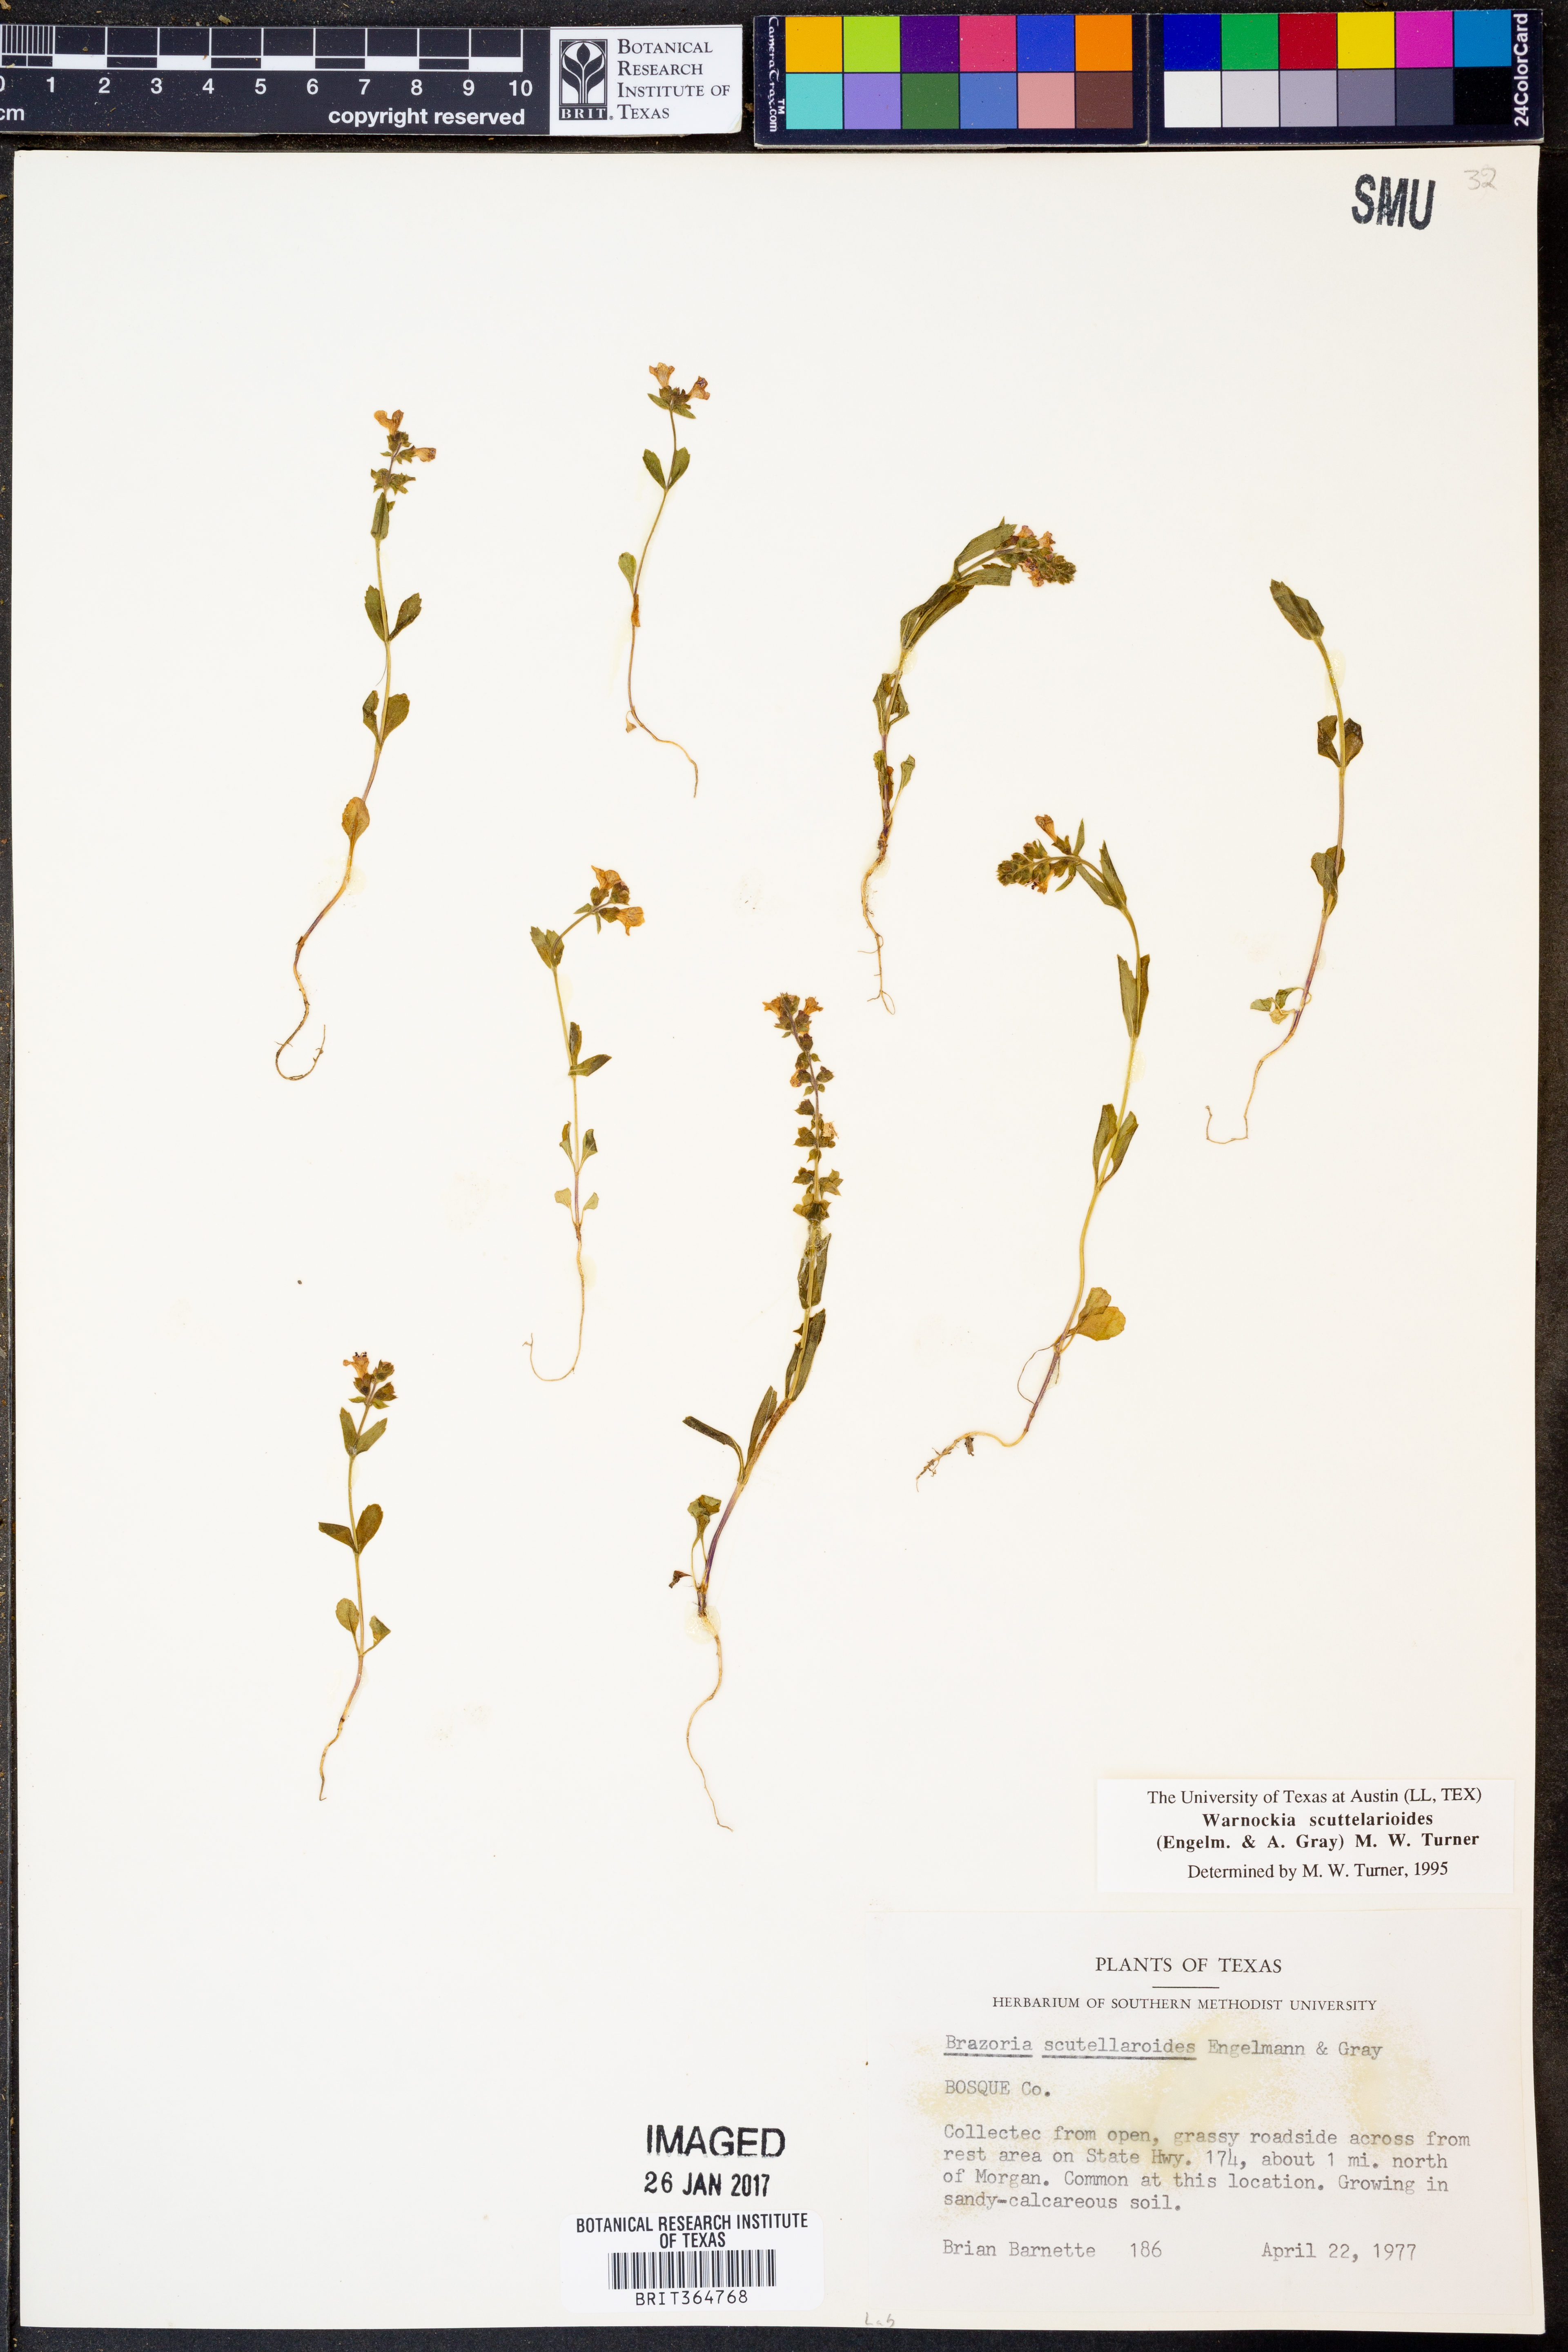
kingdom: Plantae
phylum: Tracheophyta
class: Magnoliopsida
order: Lamiales
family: Lamiaceae
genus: Warnockia
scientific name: Warnockia scutellarioides
